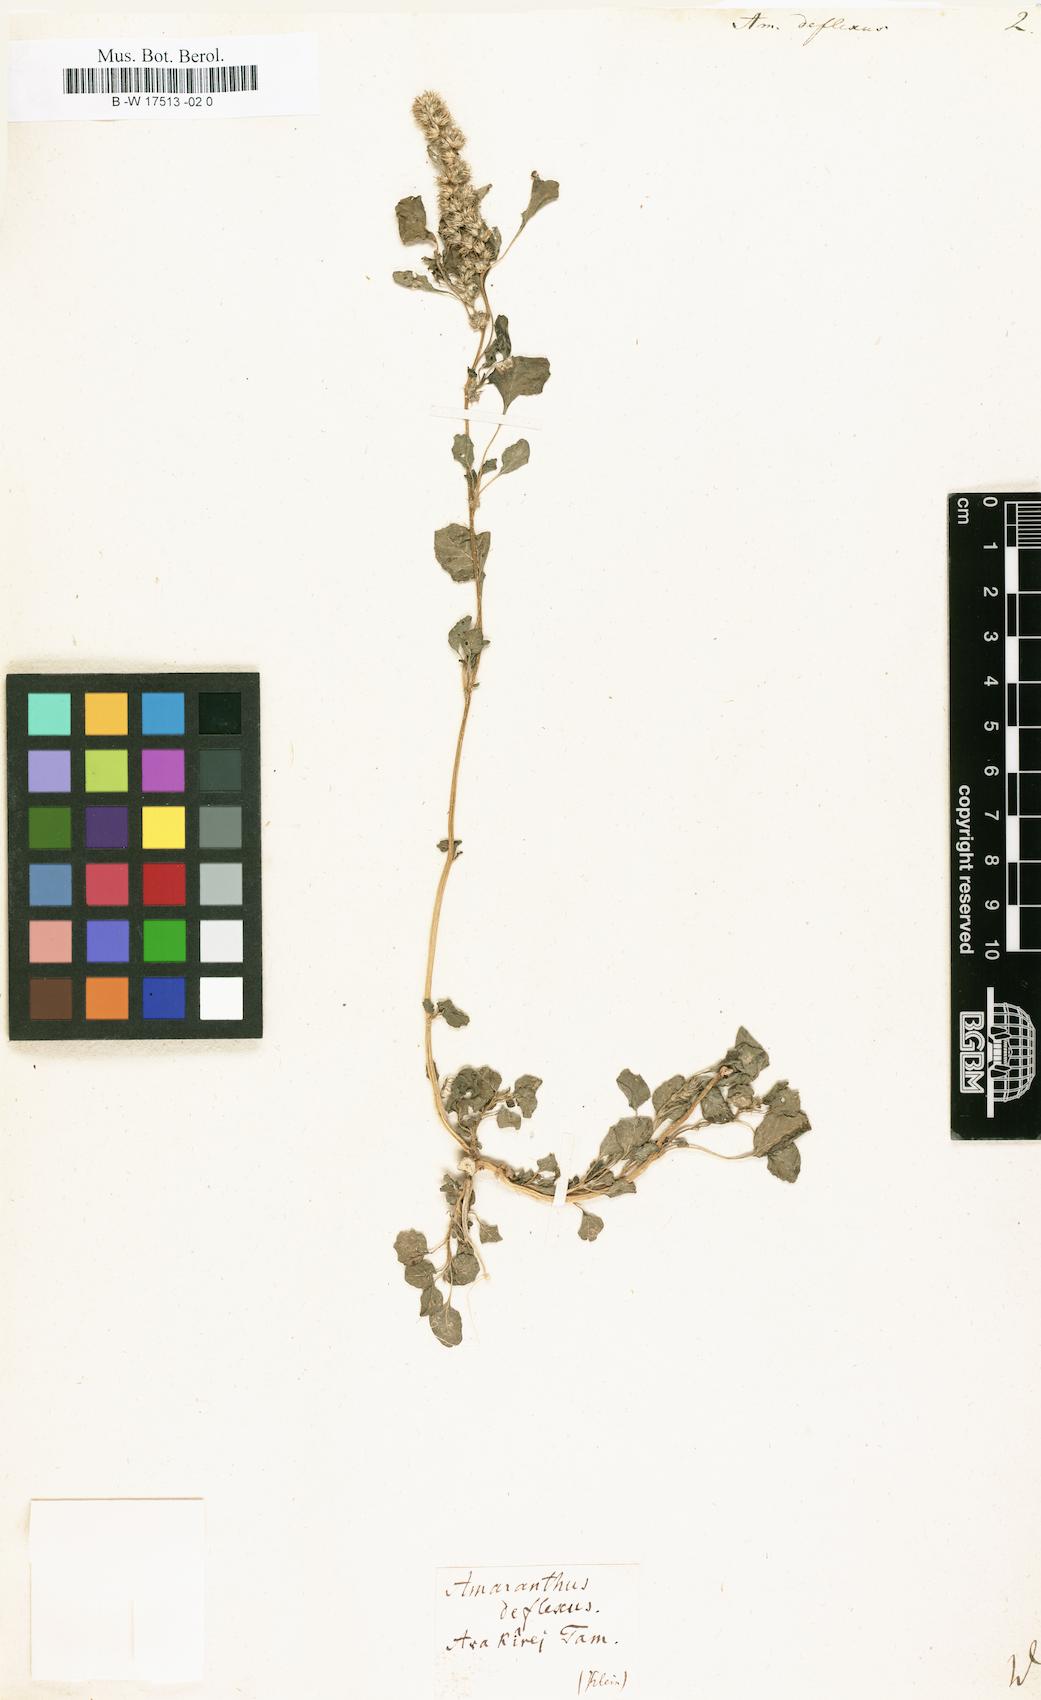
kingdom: Plantae
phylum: Tracheophyta
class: Magnoliopsida
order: Caryophyllales
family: Amaranthaceae
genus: Amaranthus
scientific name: Amaranthus deflexus
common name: Perennial pigweed
